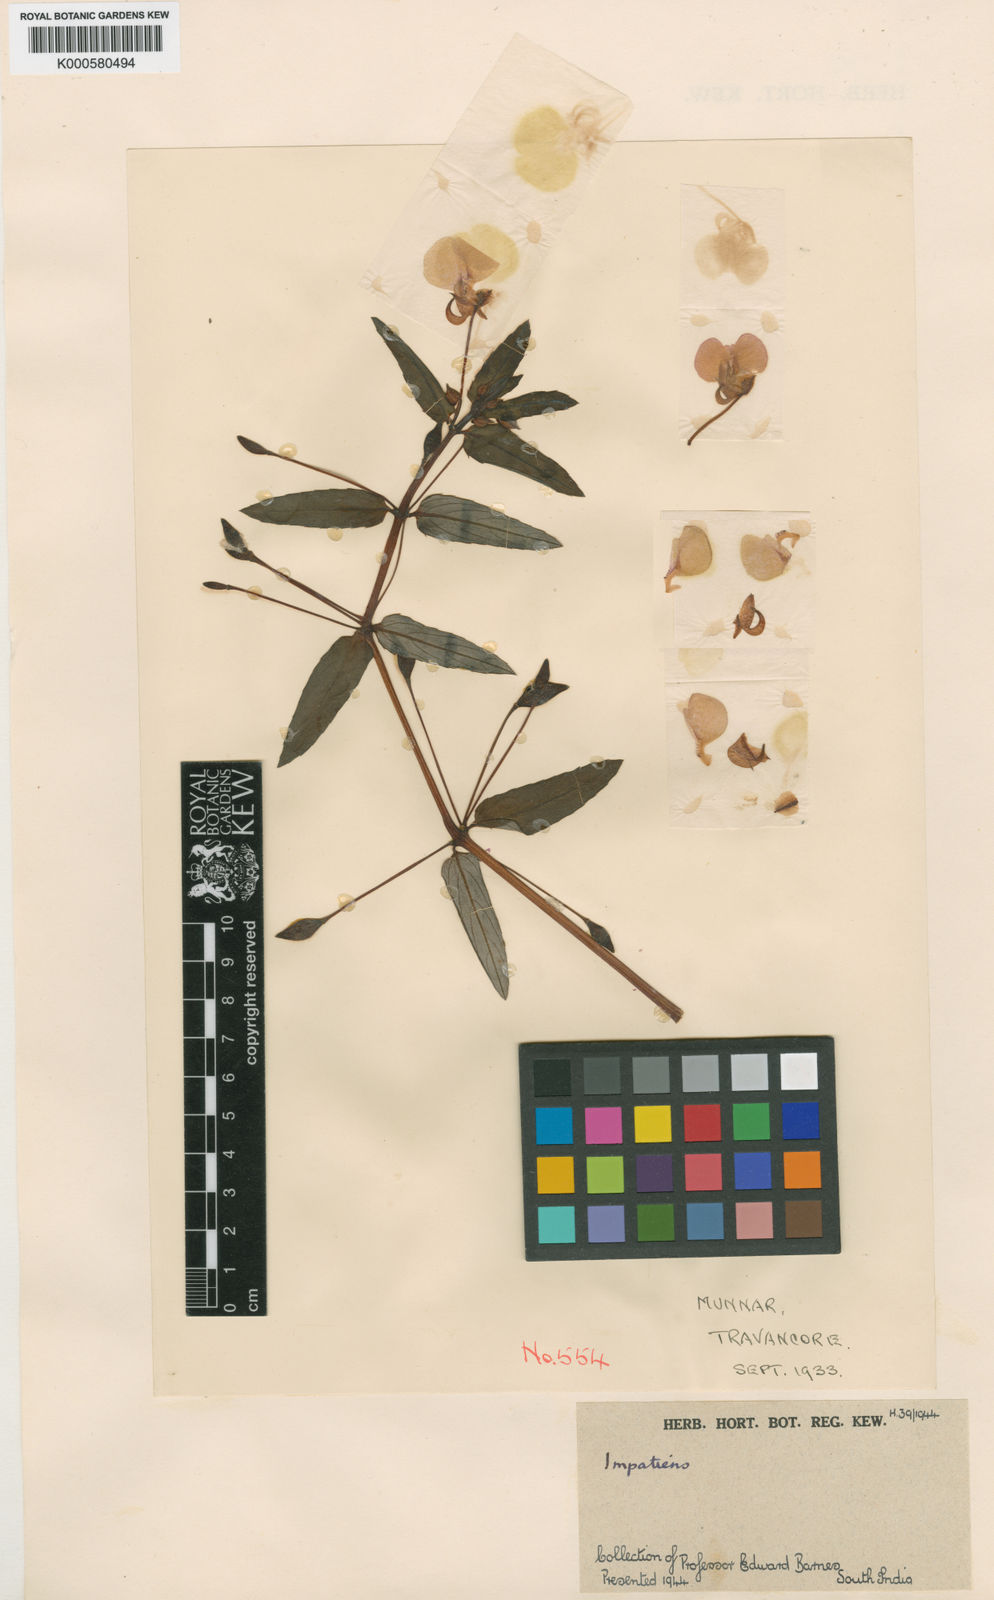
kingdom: Plantae
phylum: Tracheophyta
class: Magnoliopsida
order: Ericales
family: Balsaminaceae
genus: Impatiens
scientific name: Impatiens chinensis
